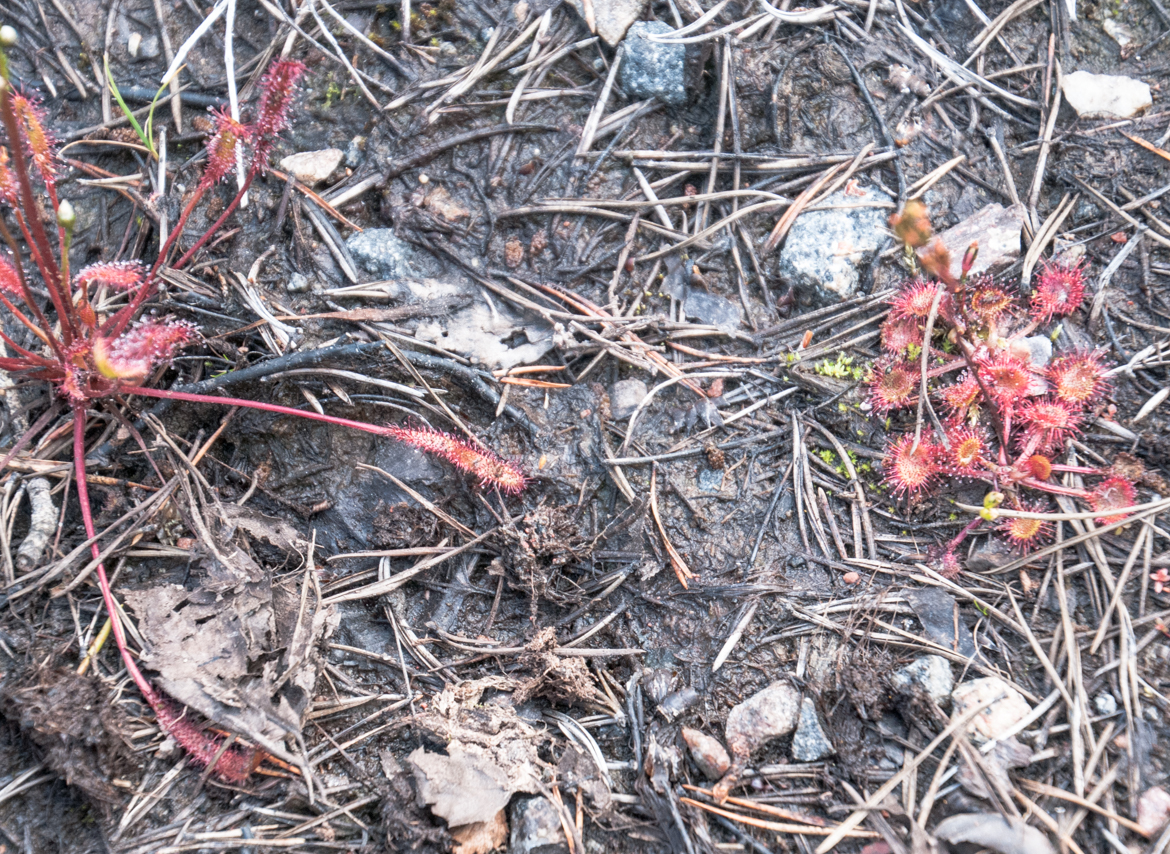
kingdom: Plantae
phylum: Tracheophyta
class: Magnoliopsida
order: Caryophyllales
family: Droseraceae
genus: Drosera
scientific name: Drosera anglica
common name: Great sundew
